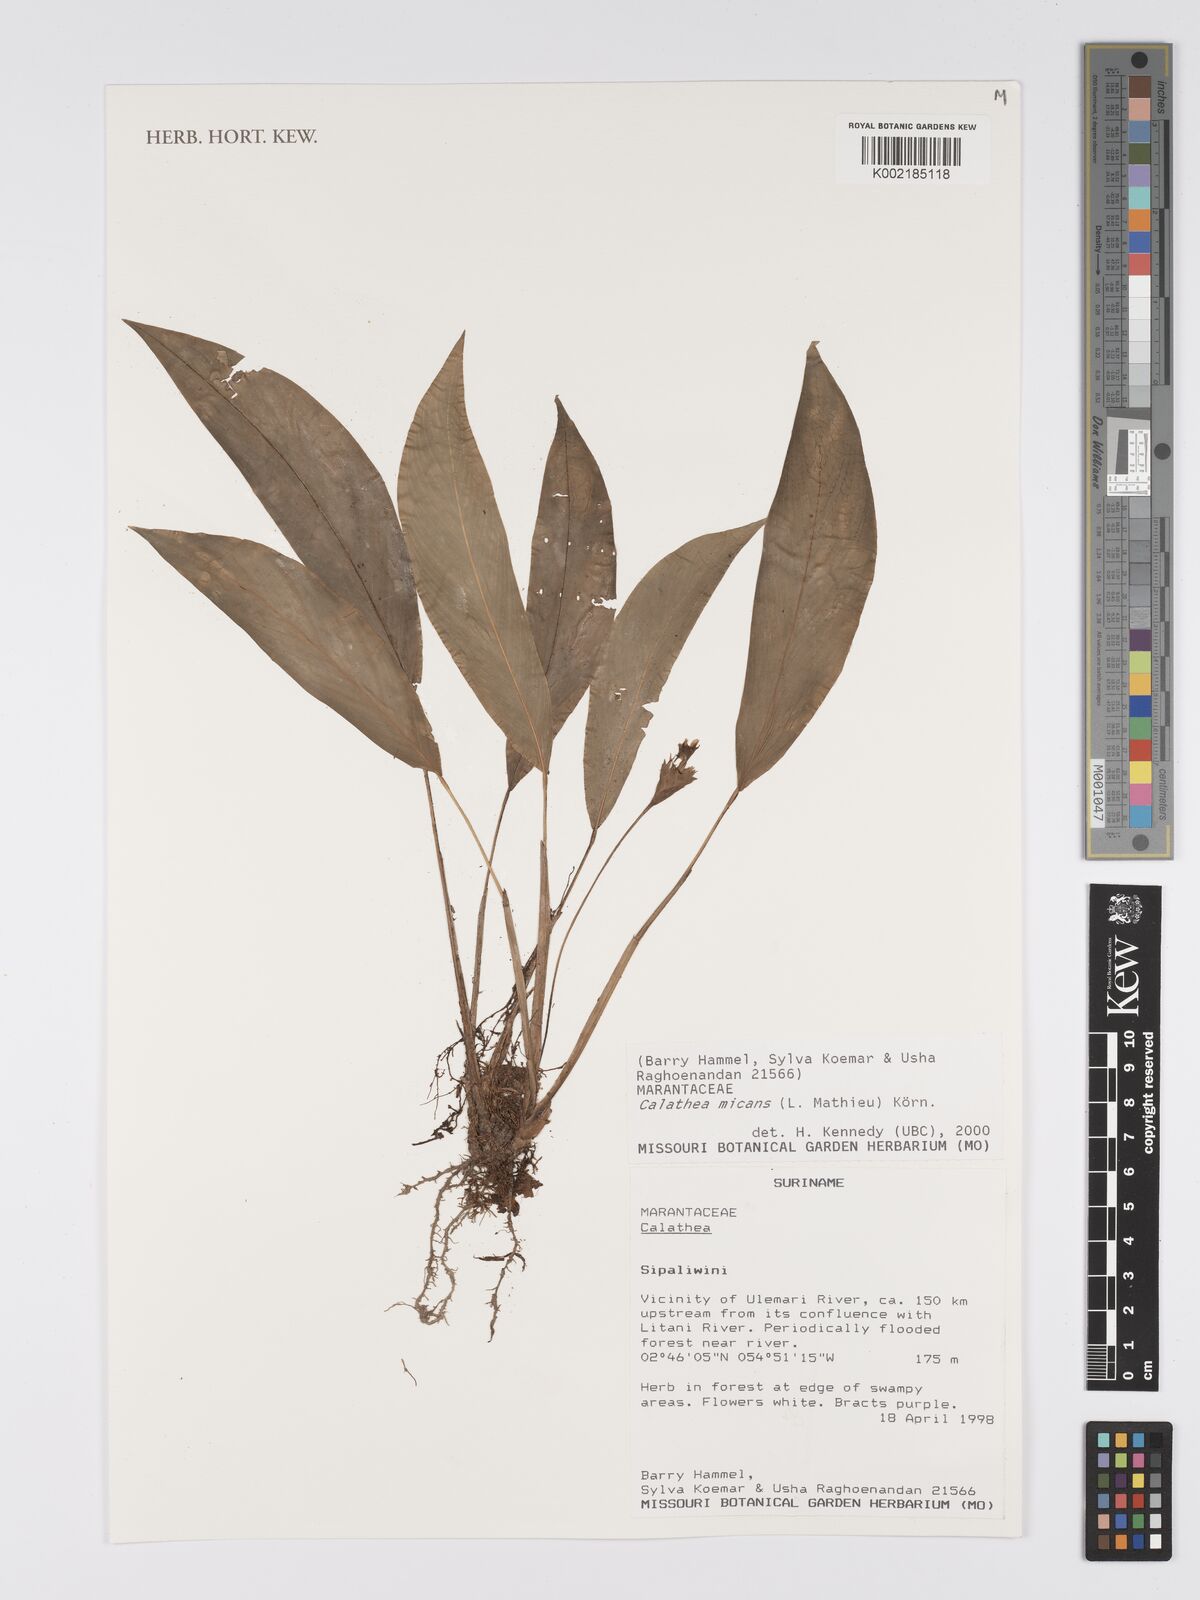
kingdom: Plantae
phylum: Tracheophyta
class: Liliopsida
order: Zingiberales
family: Marantaceae
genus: Goeppertia
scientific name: Goeppertia micans
